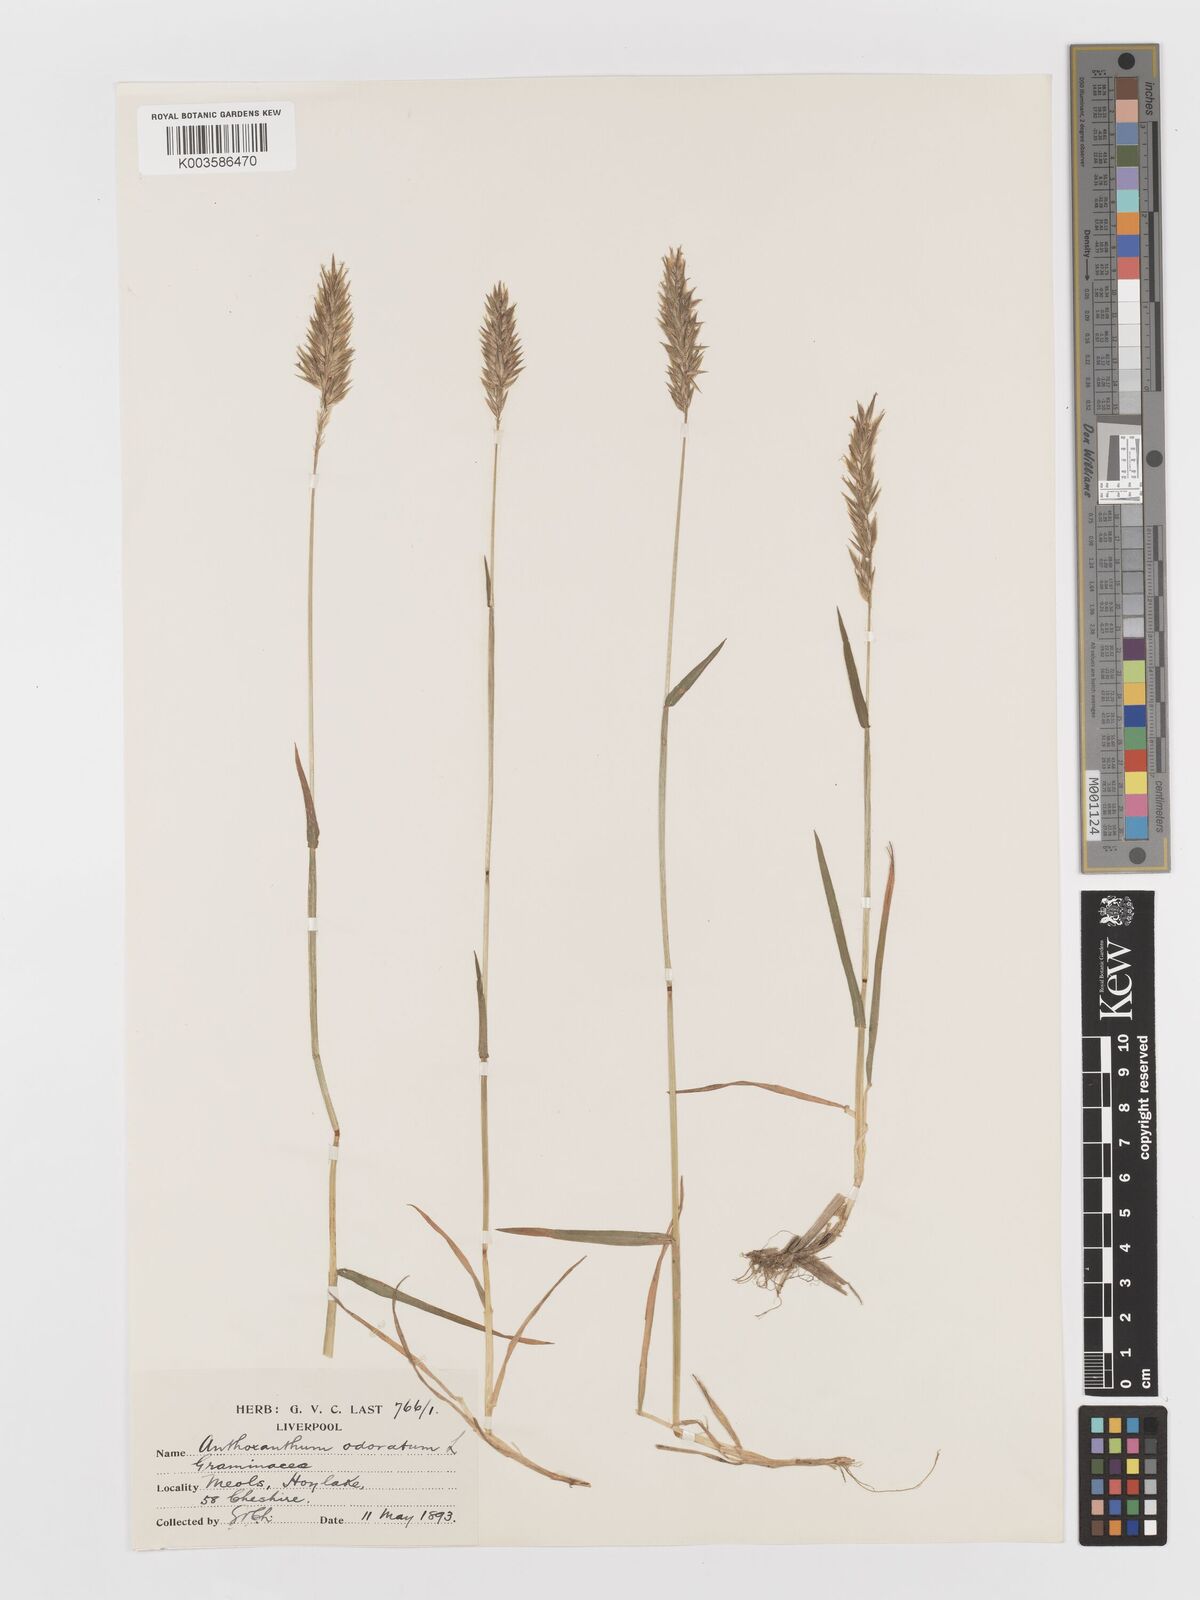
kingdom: Plantae
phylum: Tracheophyta
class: Liliopsida
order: Poales
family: Poaceae
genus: Anthoxanthum
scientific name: Anthoxanthum odoratum
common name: Sweet vernalgrass
